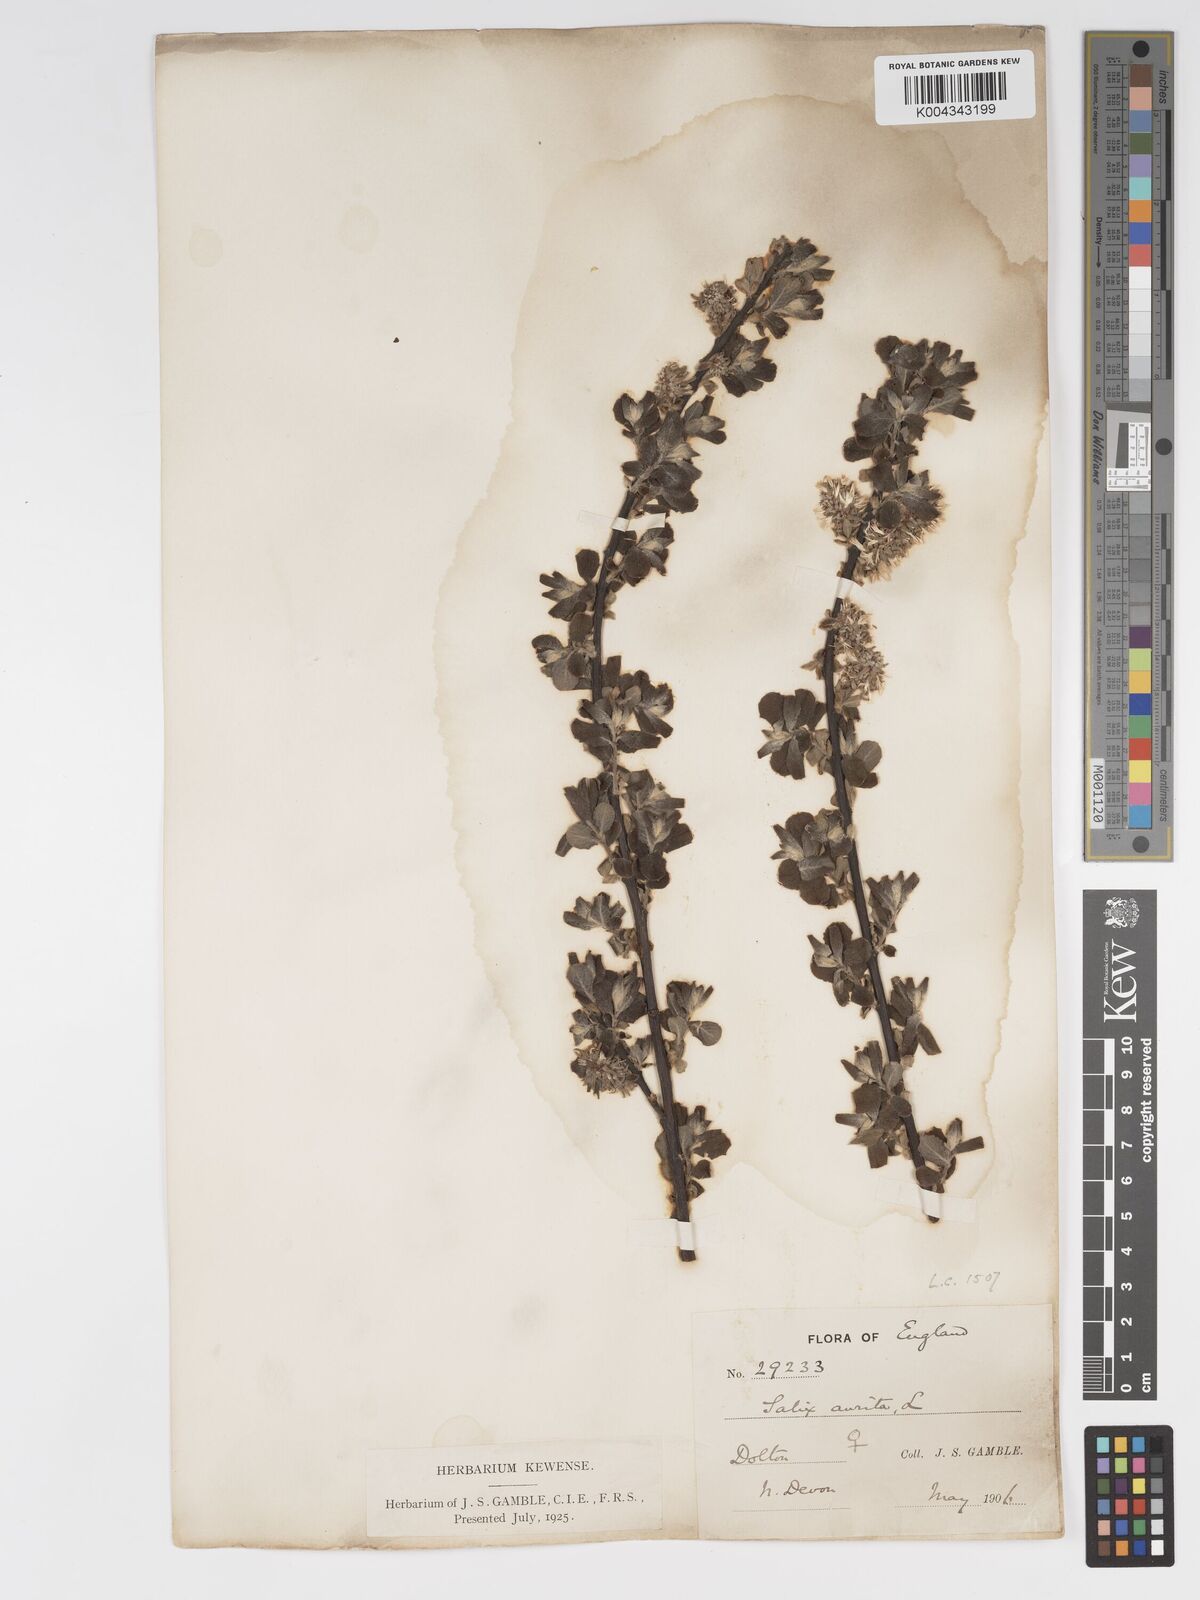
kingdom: Plantae
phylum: Tracheophyta
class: Magnoliopsida
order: Malpighiales
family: Salicaceae
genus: Salix
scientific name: Salix aurita
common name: Eared willow
